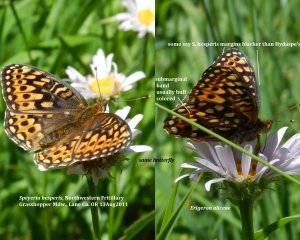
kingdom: Animalia
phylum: Arthropoda
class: Insecta
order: Lepidoptera
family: Nymphalidae
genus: Speyeria
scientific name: Speyeria atlantis
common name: Northwestern Fritillary
